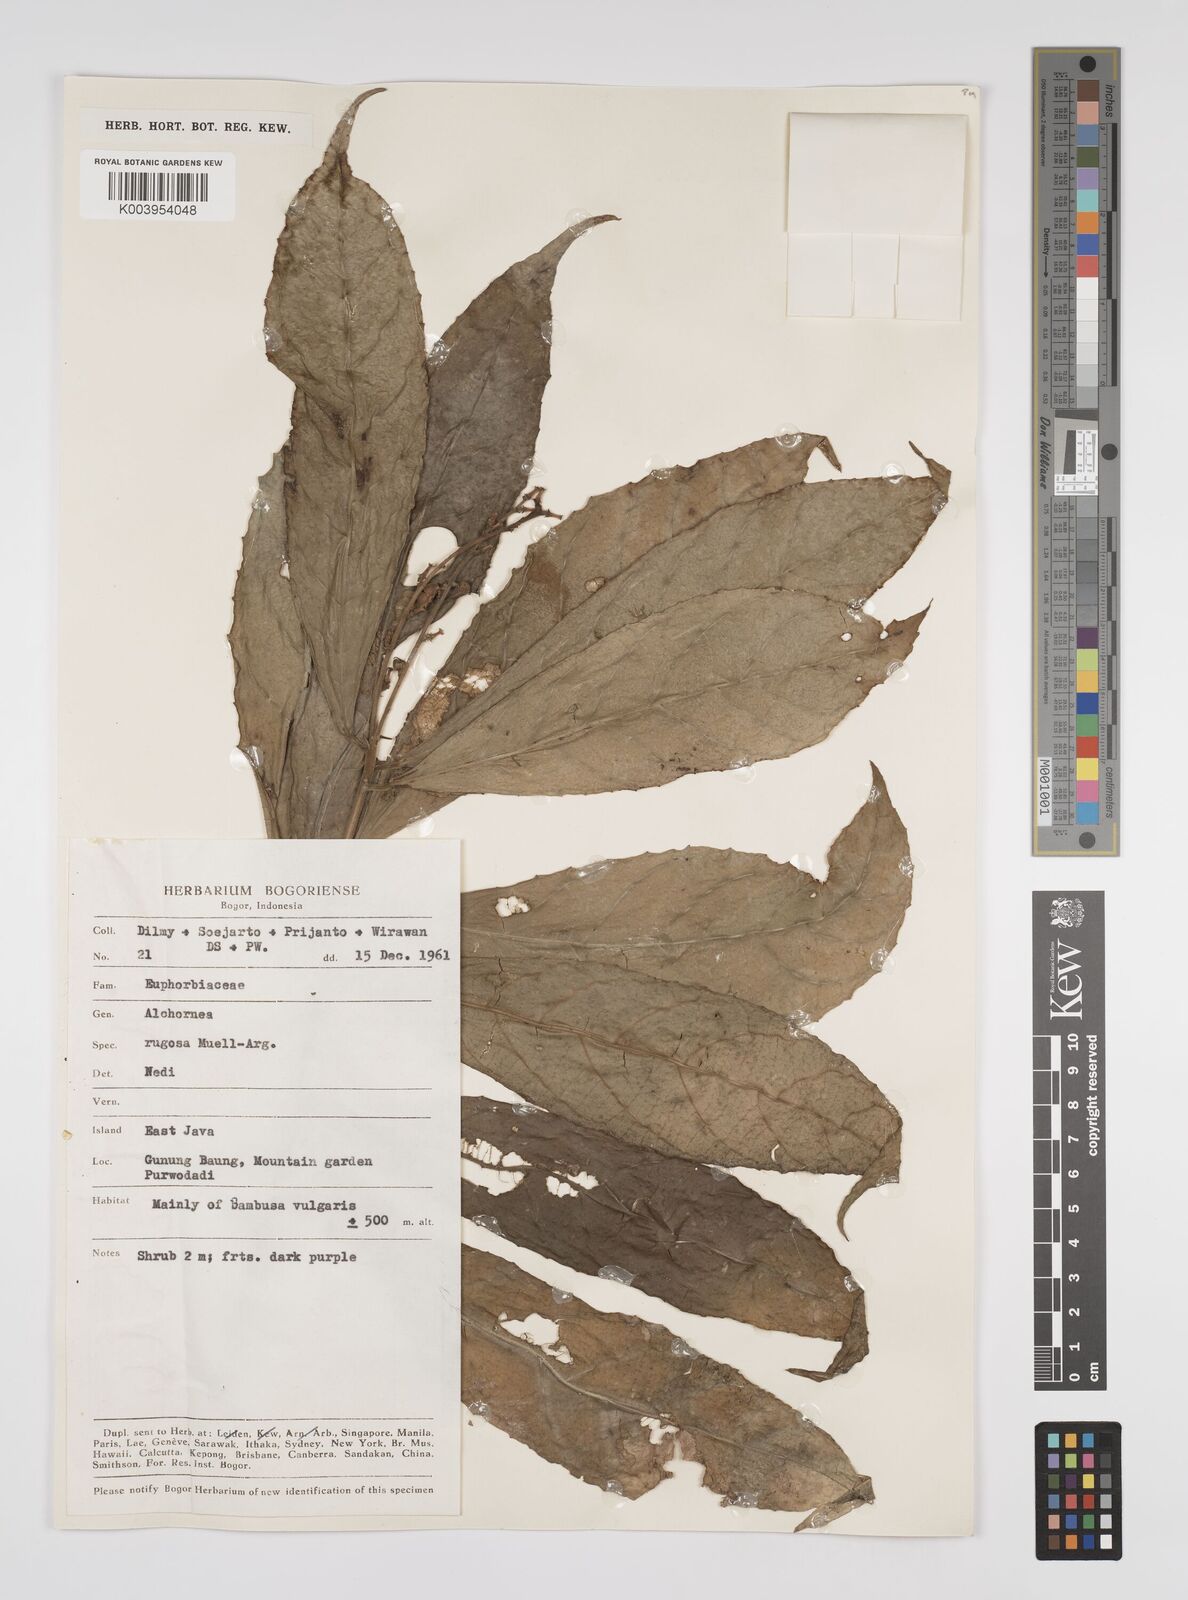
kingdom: Plantae
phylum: Tracheophyta
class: Magnoliopsida
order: Malpighiales
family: Euphorbiaceae
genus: Alchornea
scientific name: Alchornea rugosa
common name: Alchorntree
